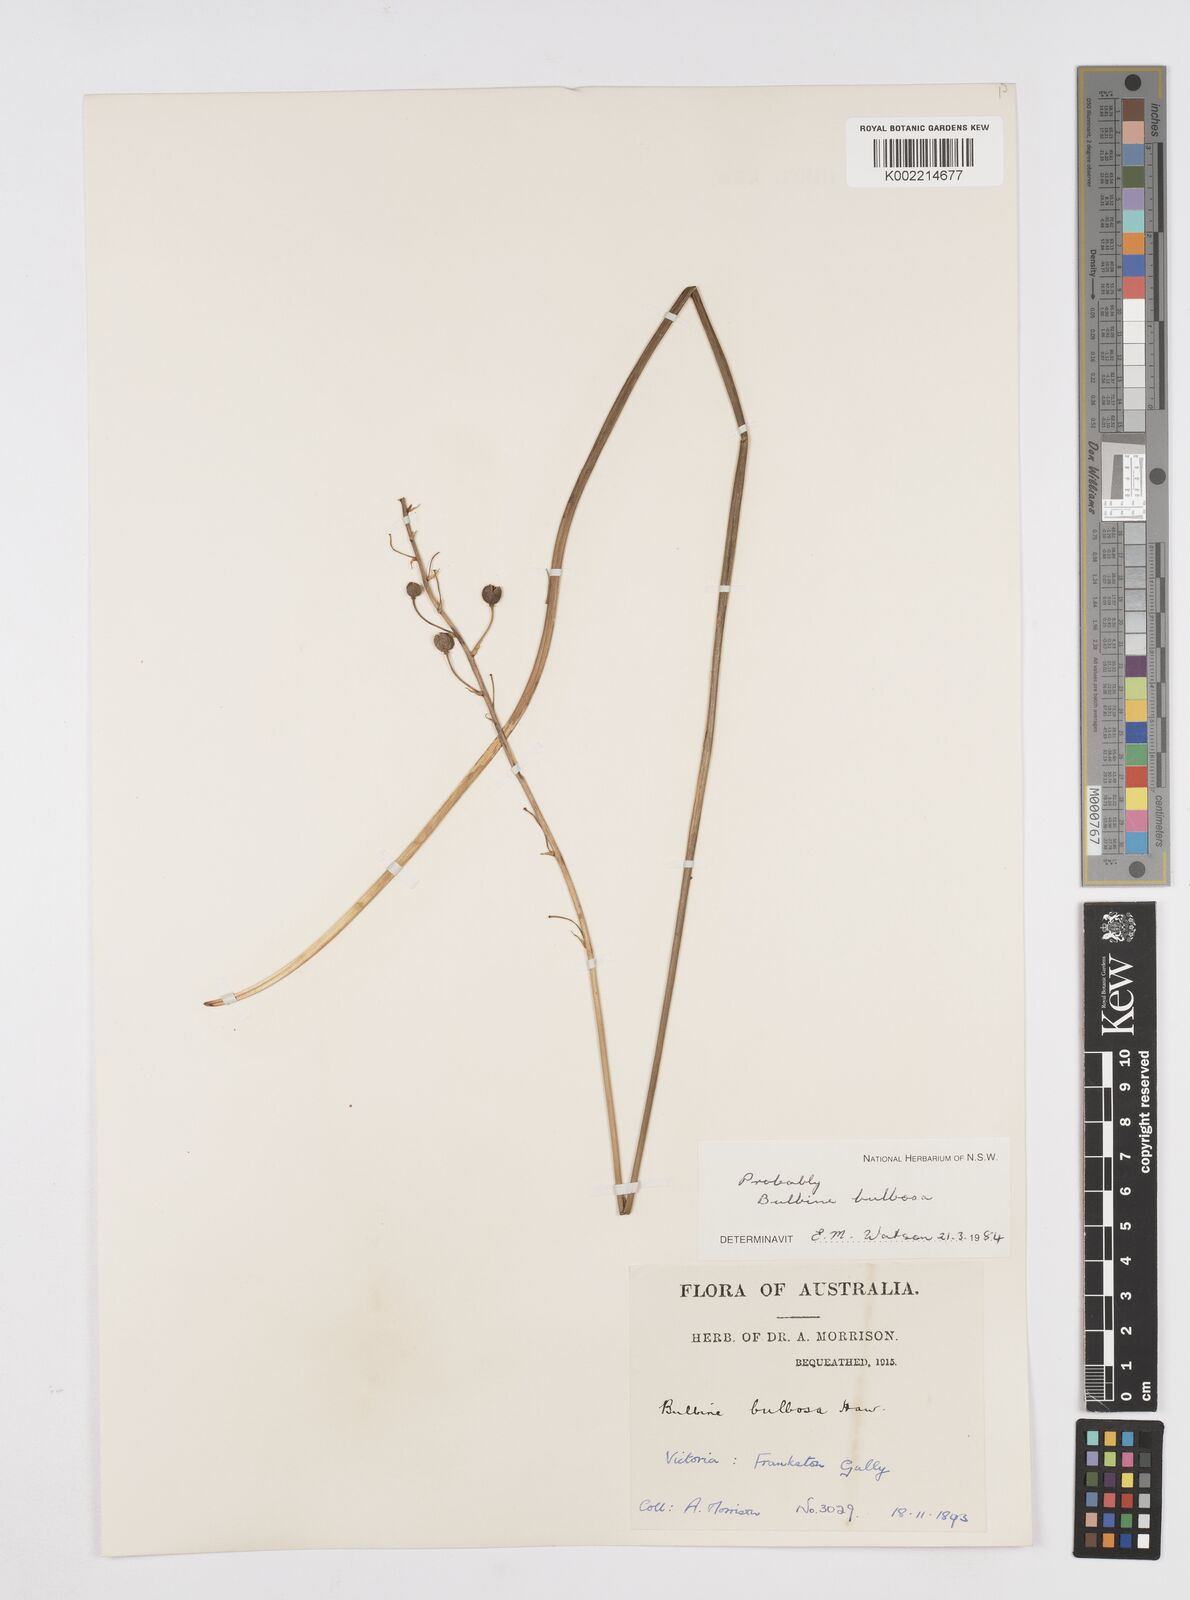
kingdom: Plantae
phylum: Tracheophyta
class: Liliopsida
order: Asparagales
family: Asphodelaceae
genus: Bulbine
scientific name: Bulbine bulbosa
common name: Golden-lily
